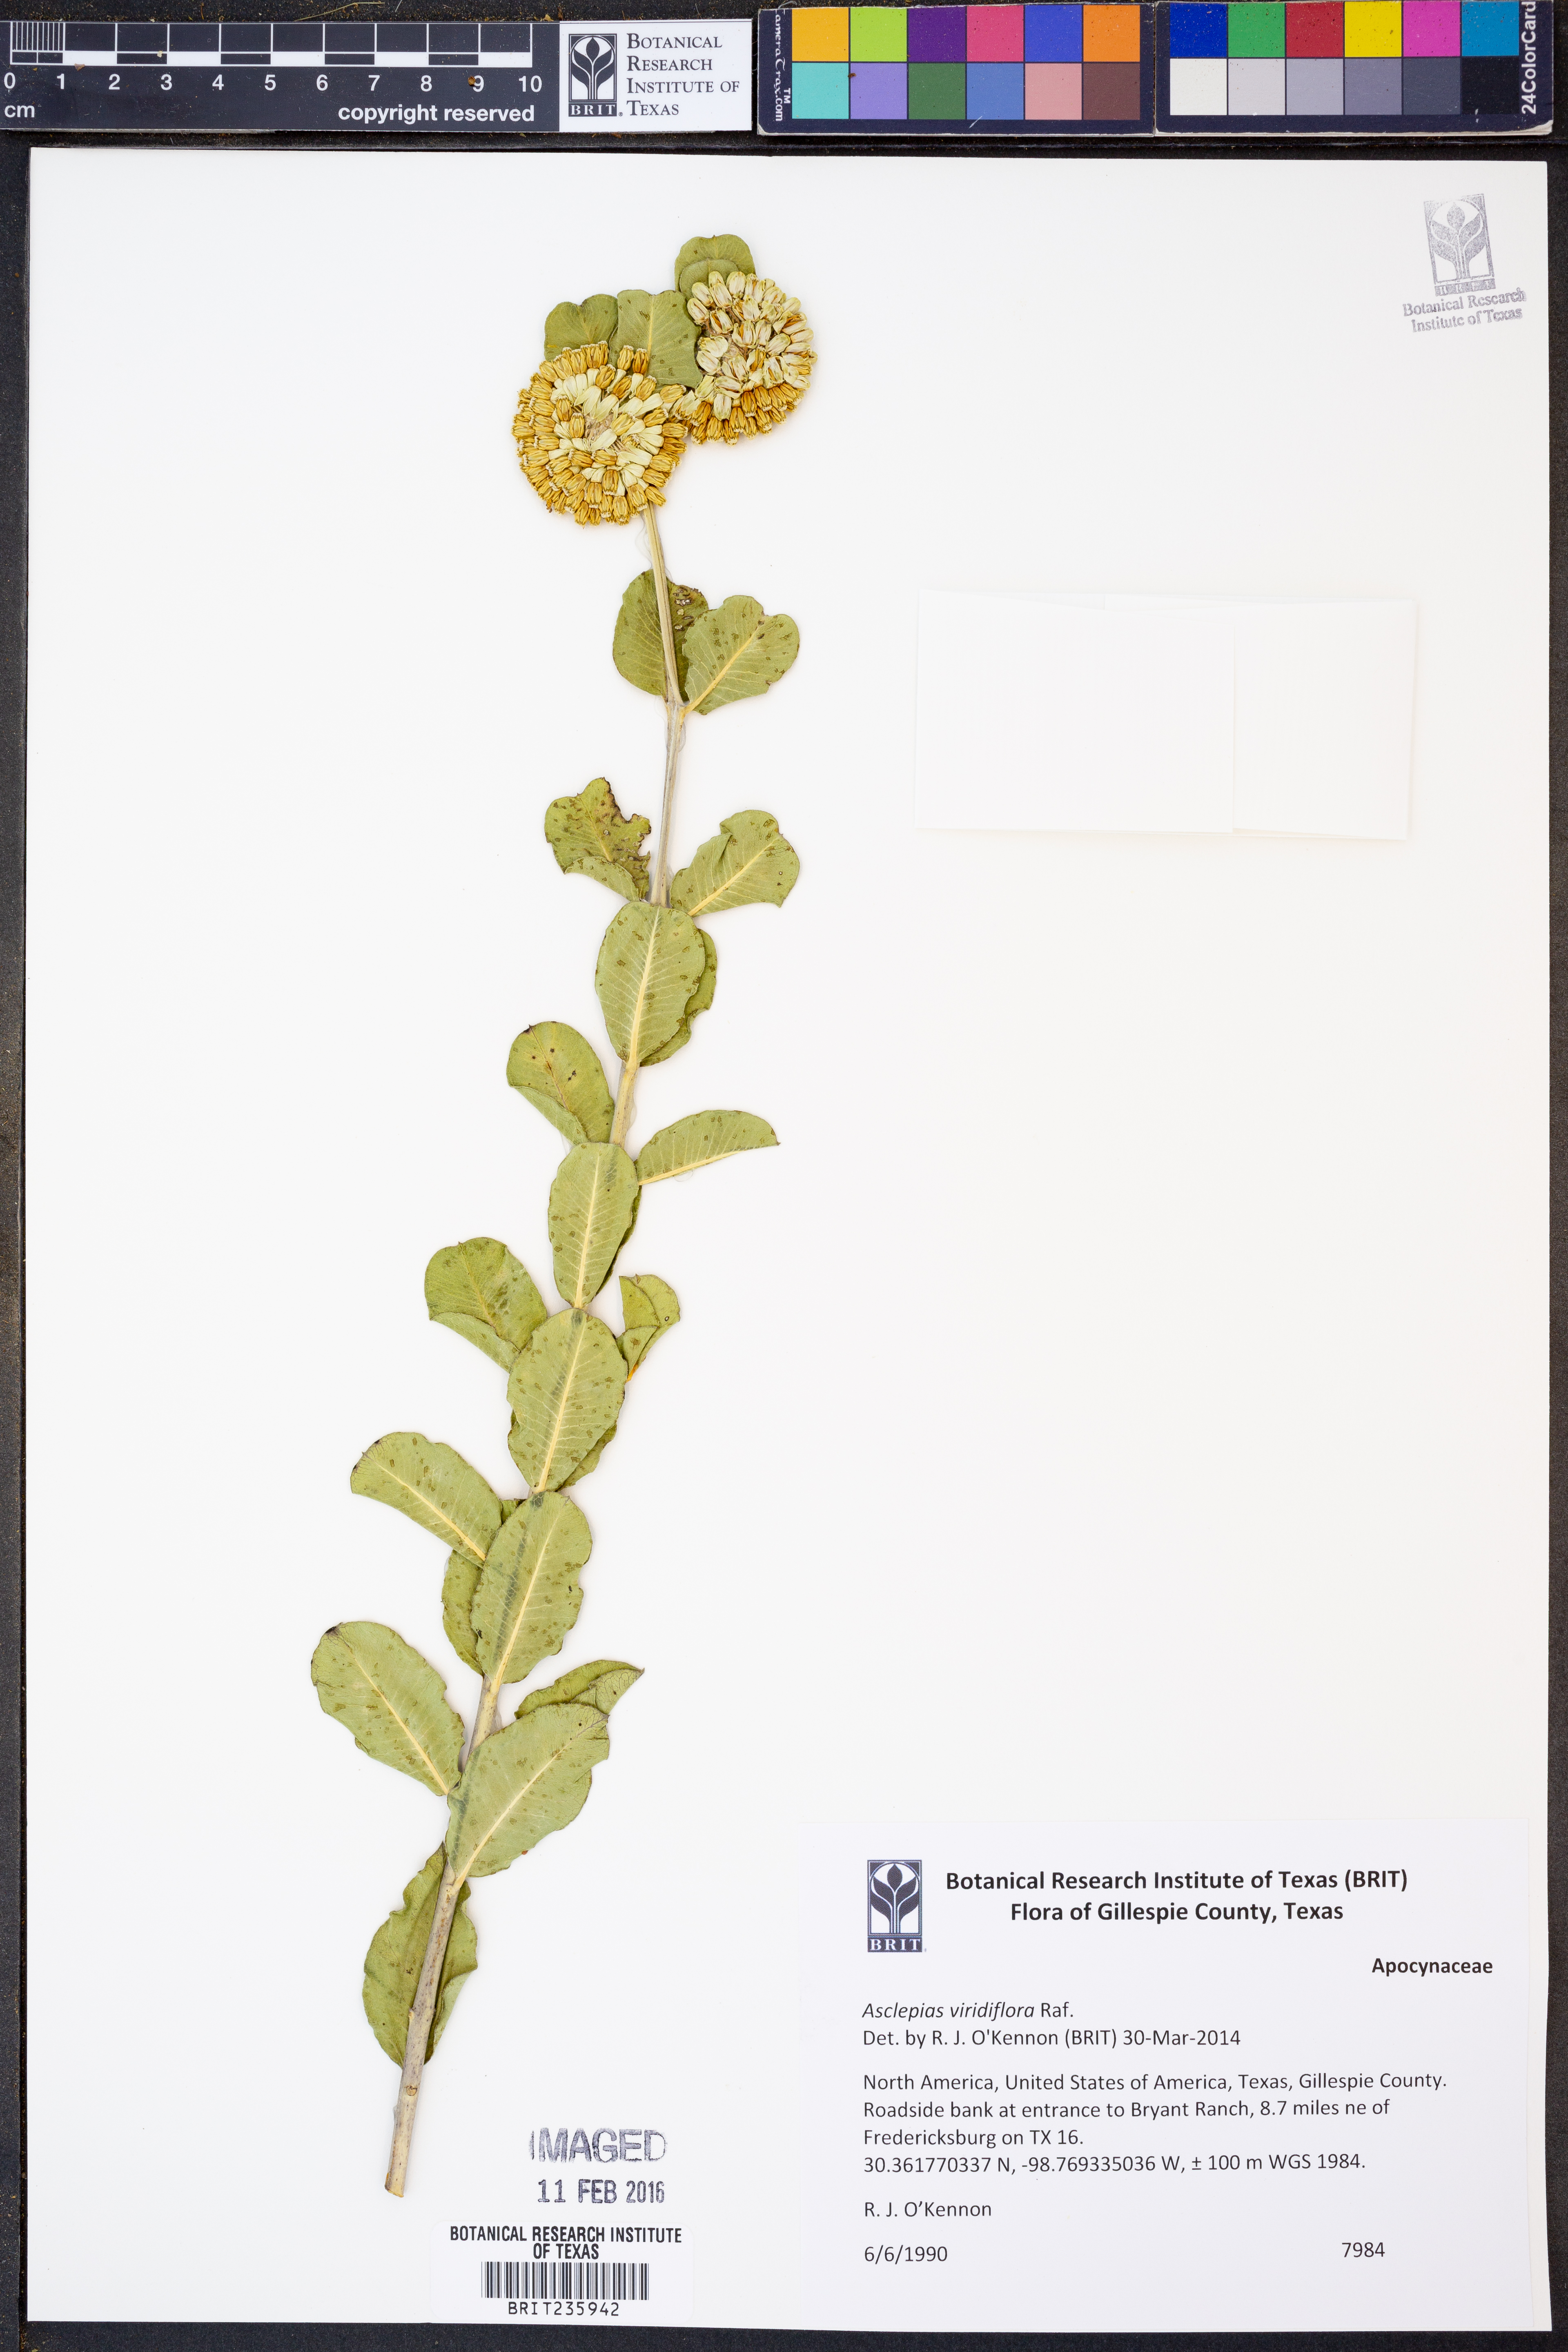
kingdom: Plantae
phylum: Tracheophyta
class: Magnoliopsida
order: Gentianales
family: Apocynaceae
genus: Asclepias
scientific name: Asclepias viridiflora
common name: Green comet milkweed
